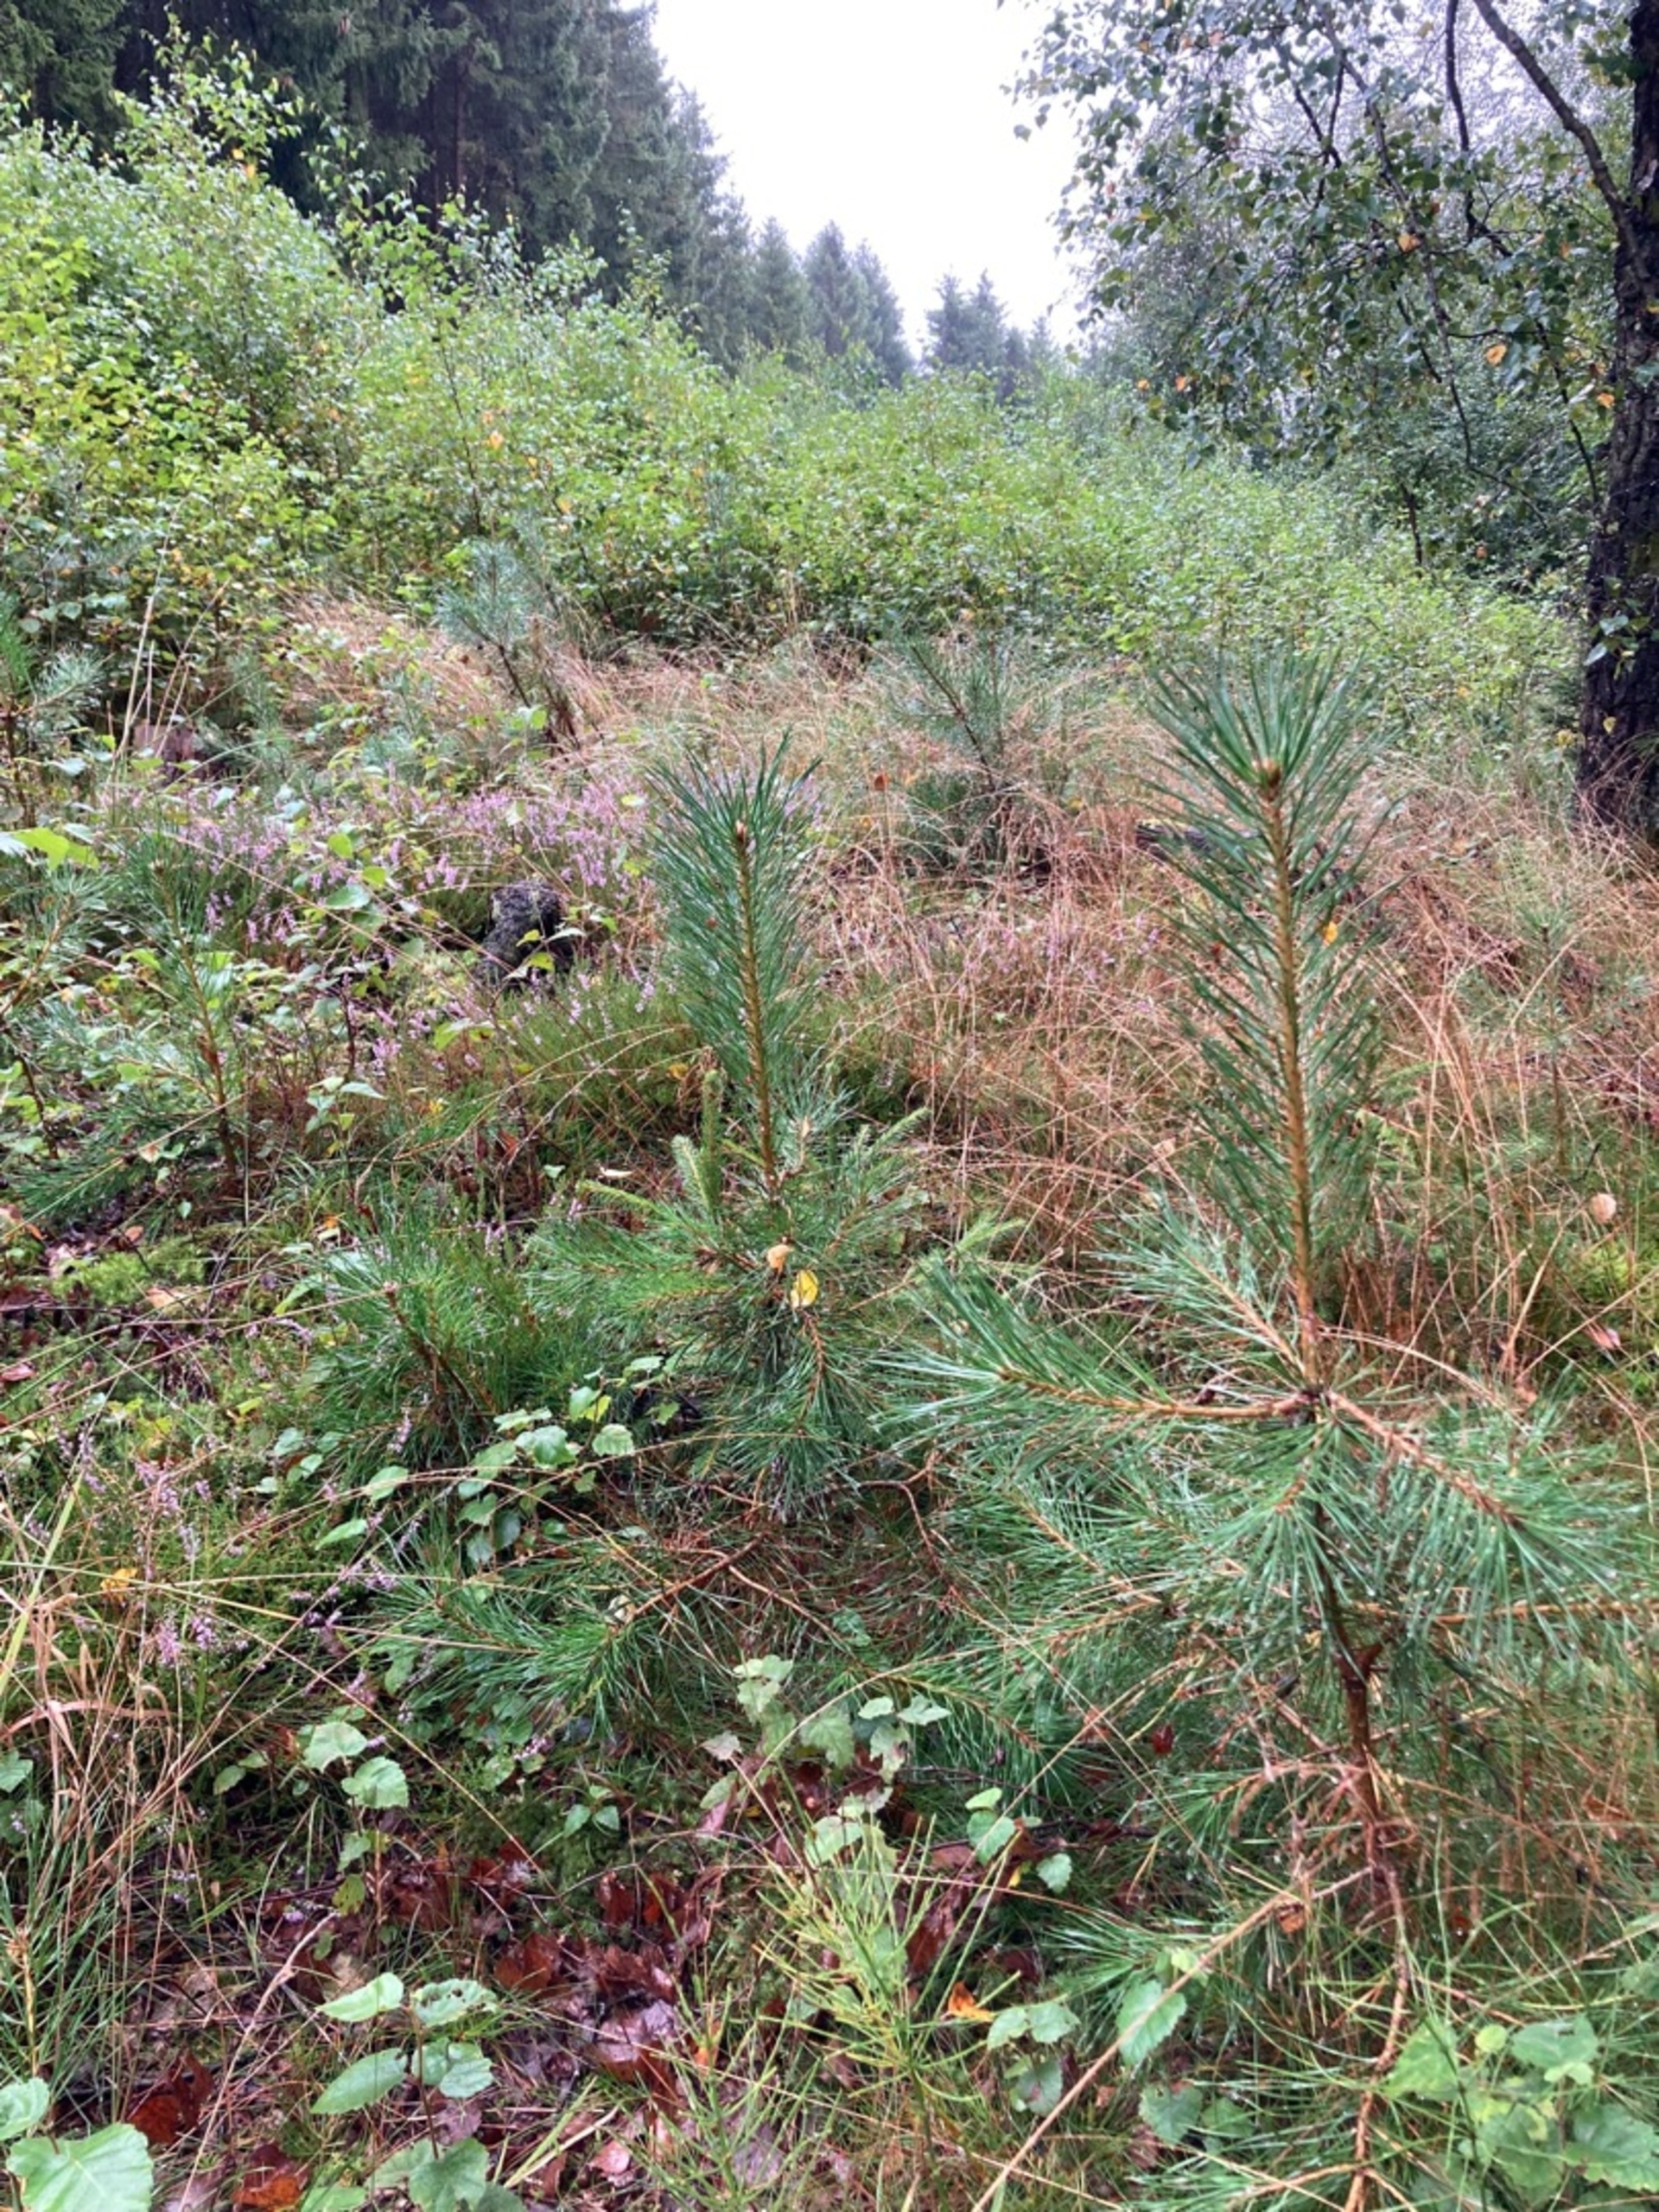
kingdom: Plantae
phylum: Tracheophyta
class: Pinopsida
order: Pinales
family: Pinaceae
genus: Pinus
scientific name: Pinus sylvestris
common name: Skov-fyr
